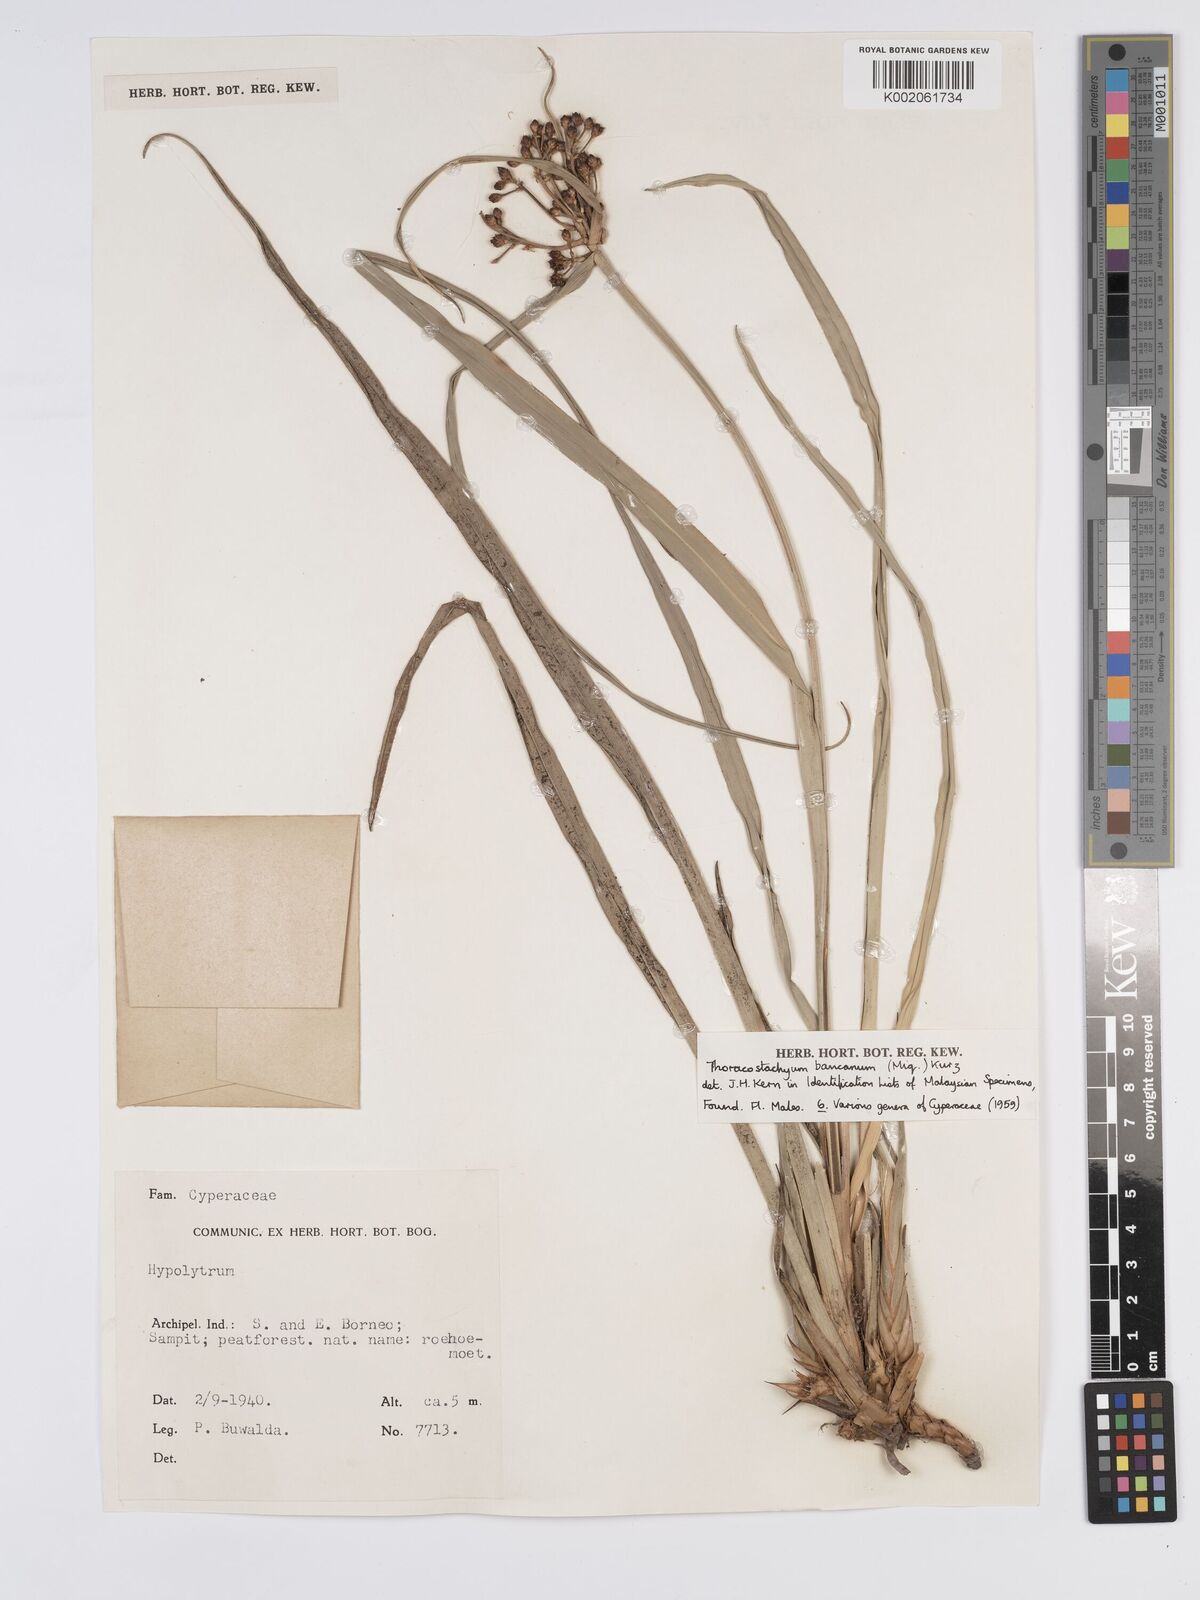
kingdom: Plantae
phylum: Tracheophyta
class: Liliopsida
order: Poales
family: Cyperaceae
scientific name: Cyperaceae
